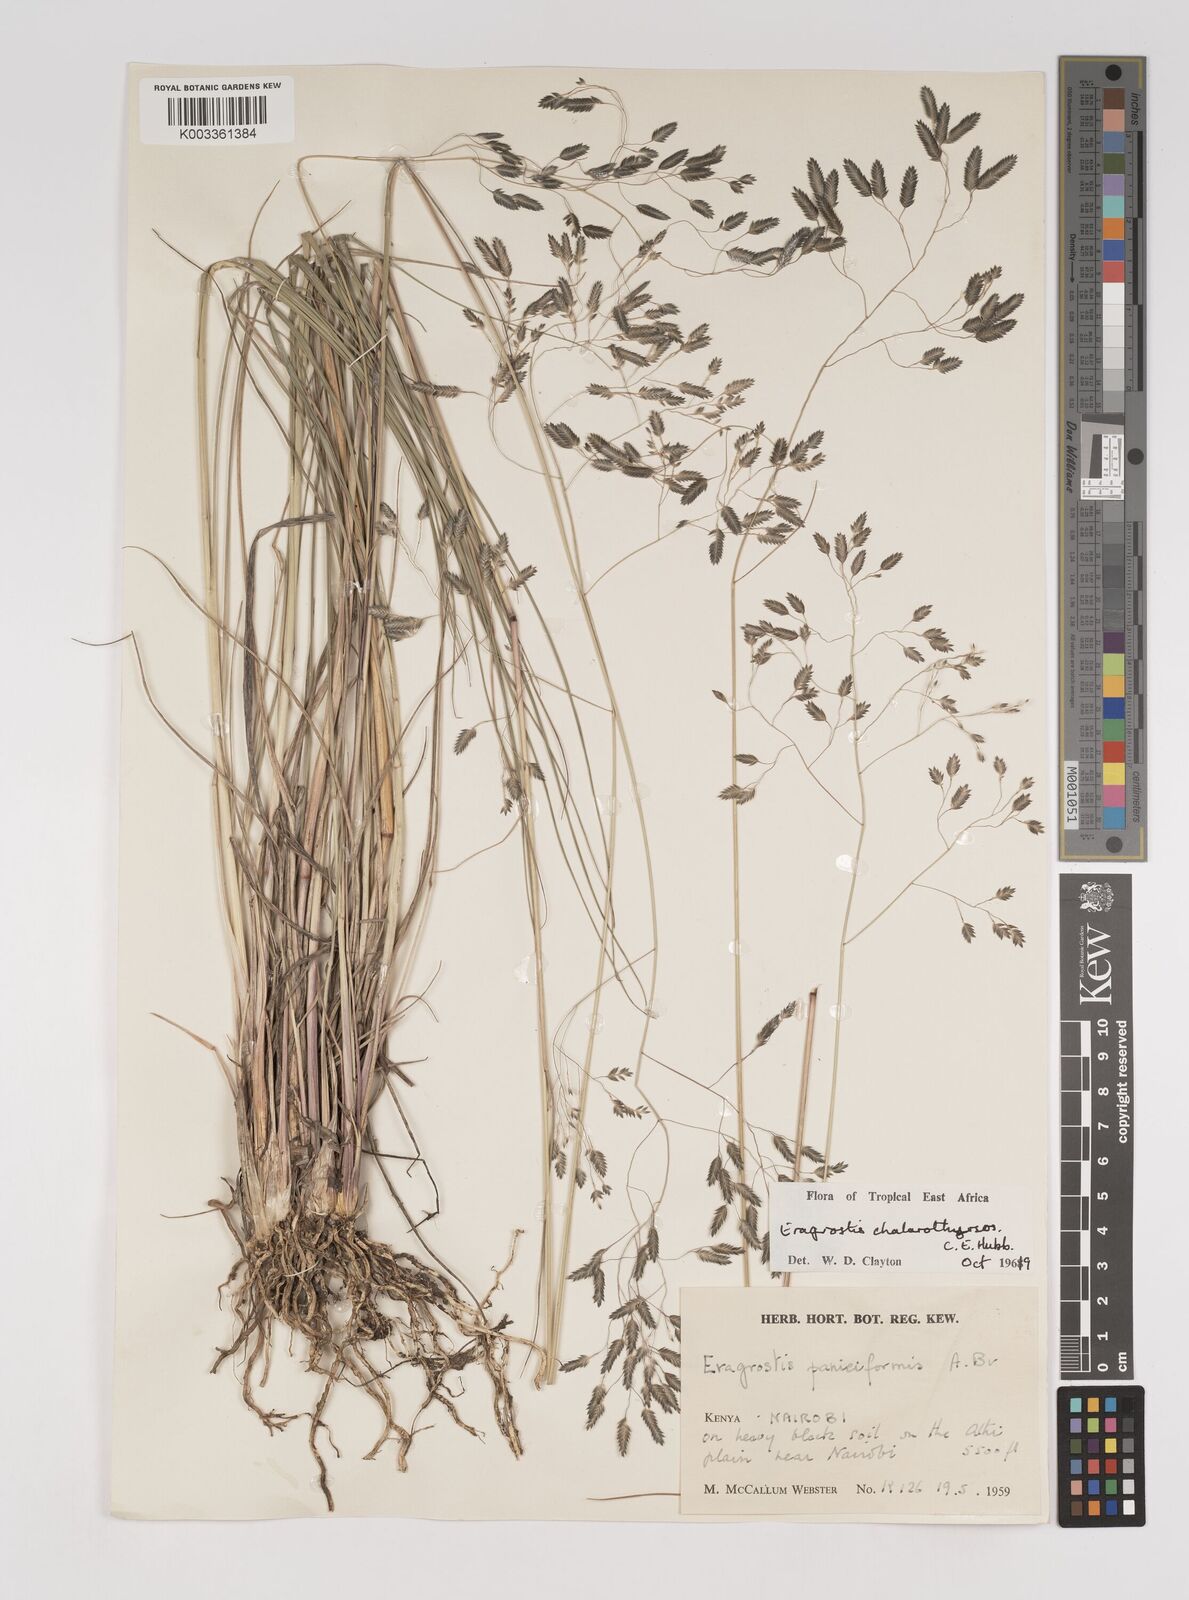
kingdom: Plantae
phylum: Tracheophyta
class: Liliopsida
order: Poales
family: Poaceae
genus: Eragrostis
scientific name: Eragrostis chalarothyrsos
